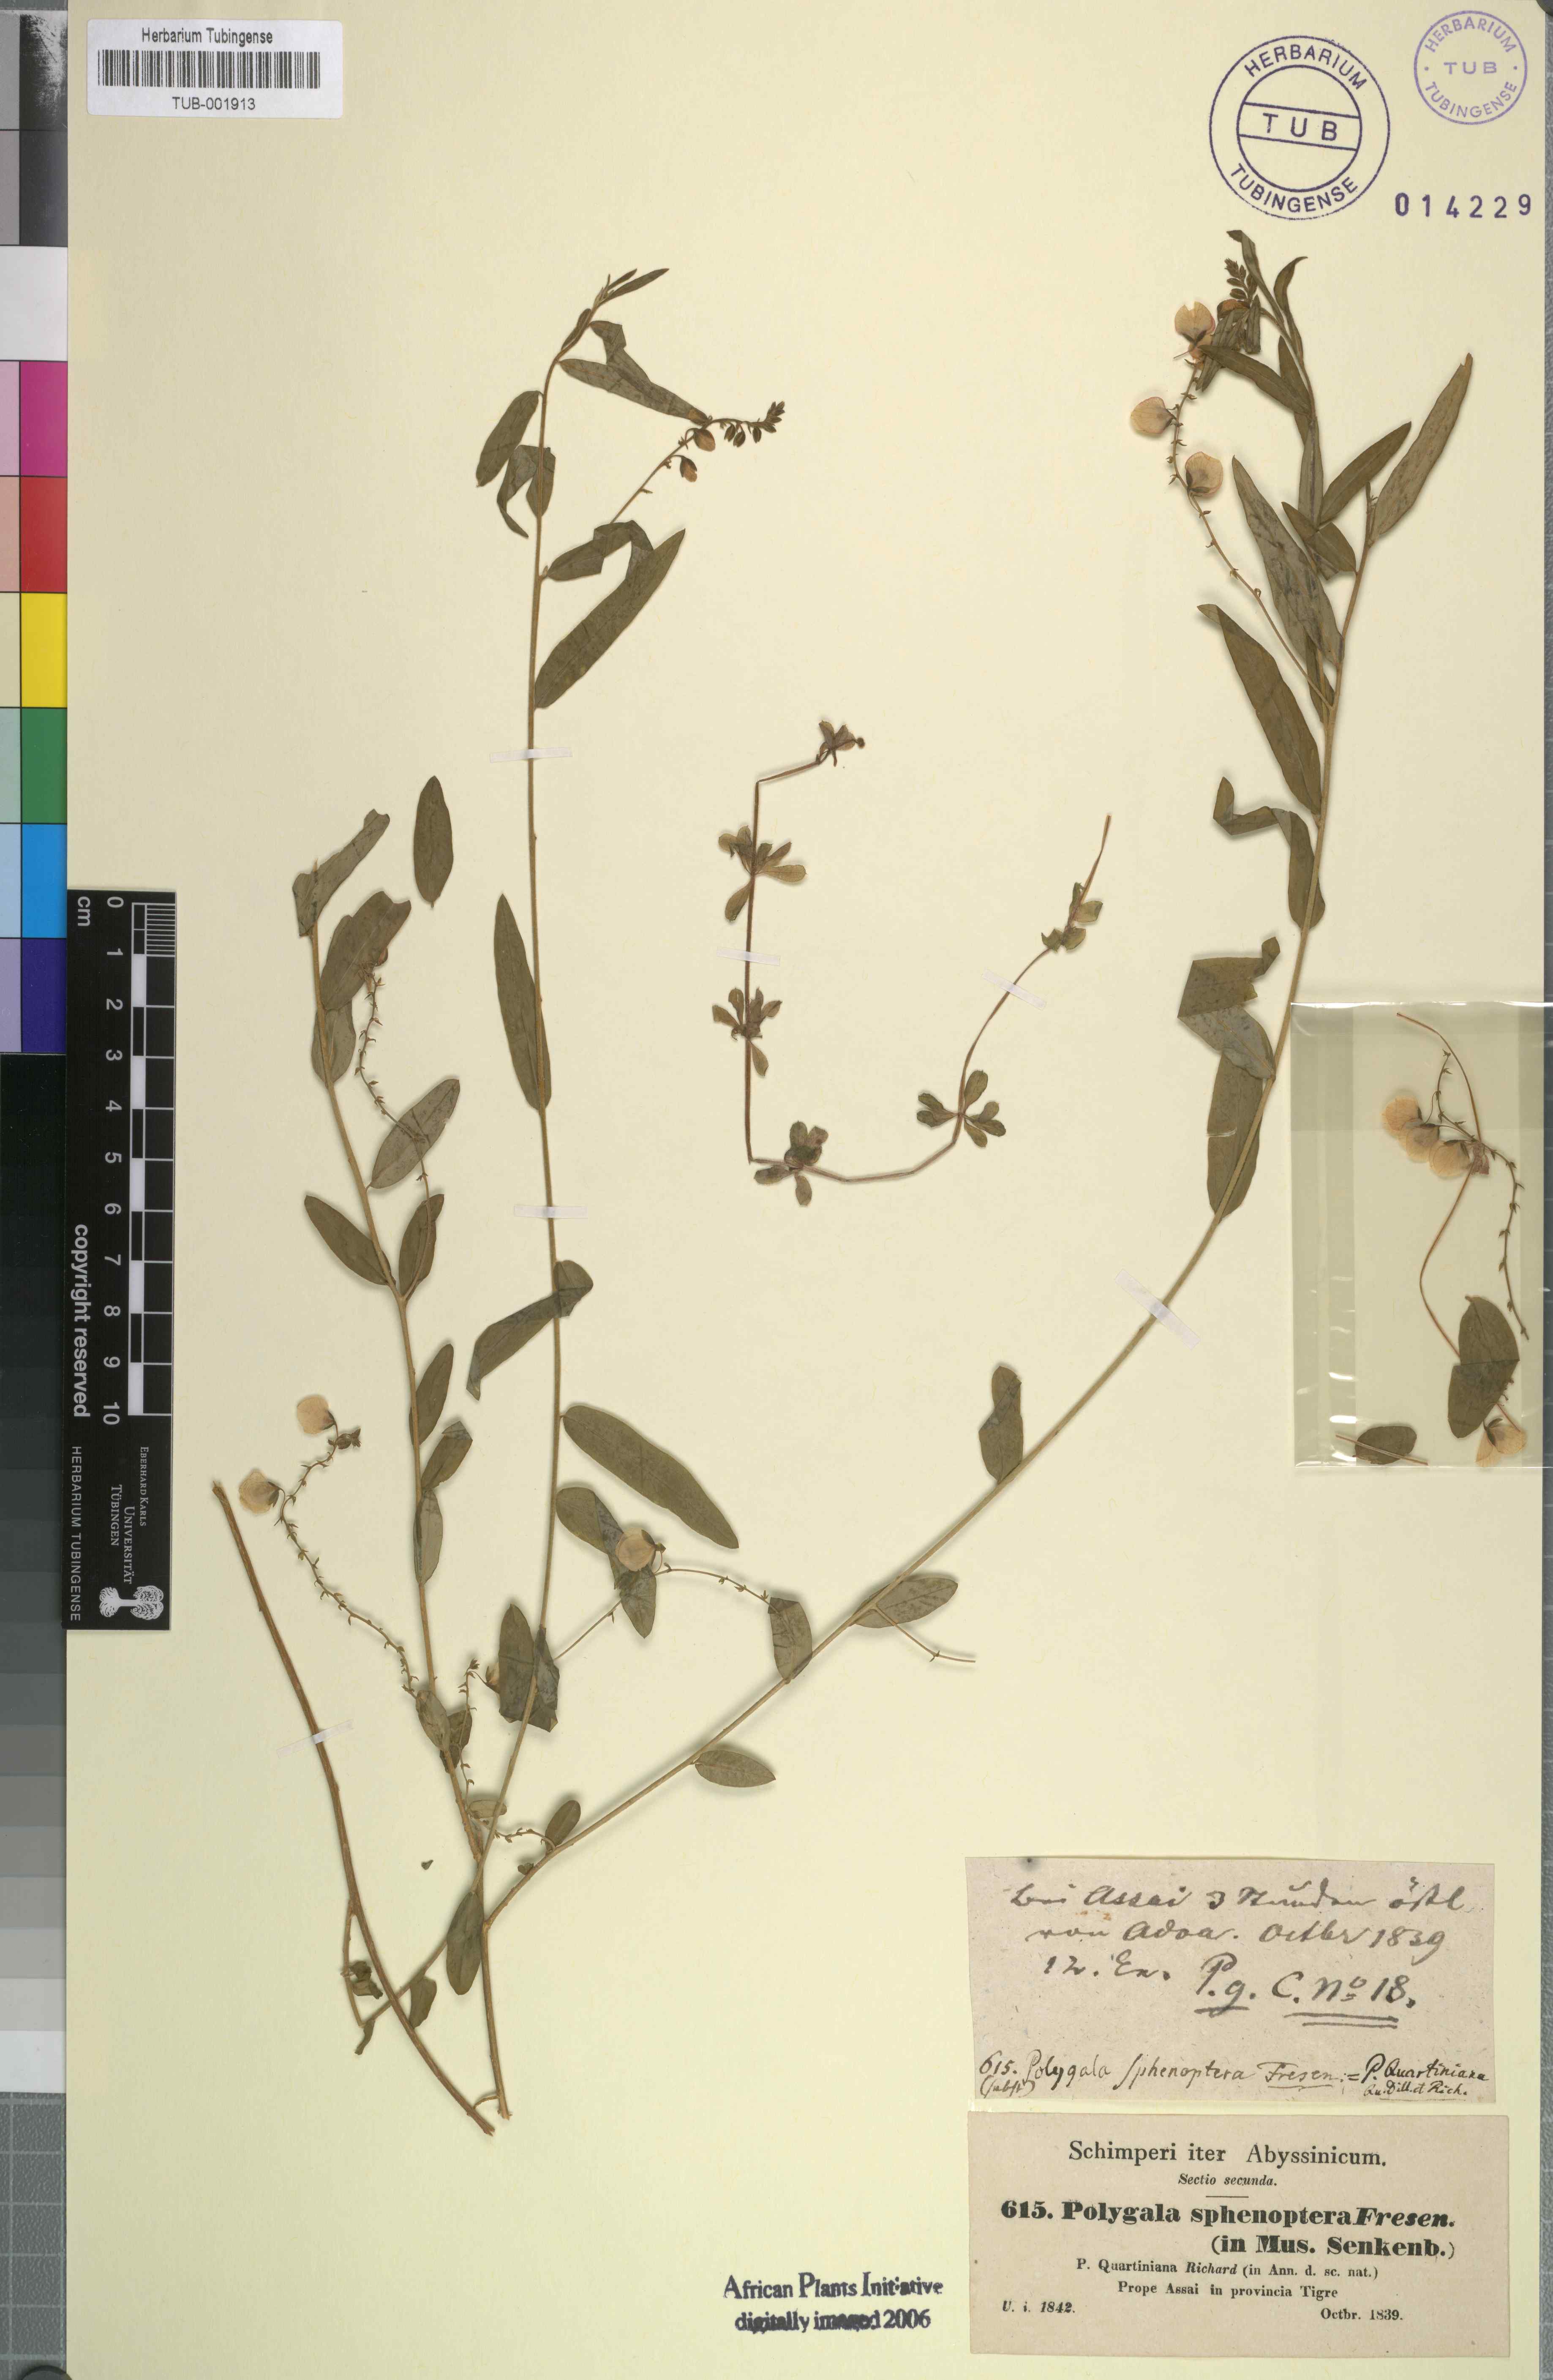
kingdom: Plantae
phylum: Tracheophyta
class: Magnoliopsida
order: Fabales
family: Polygalaceae
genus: Polygala
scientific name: Polygala sphenoptera
